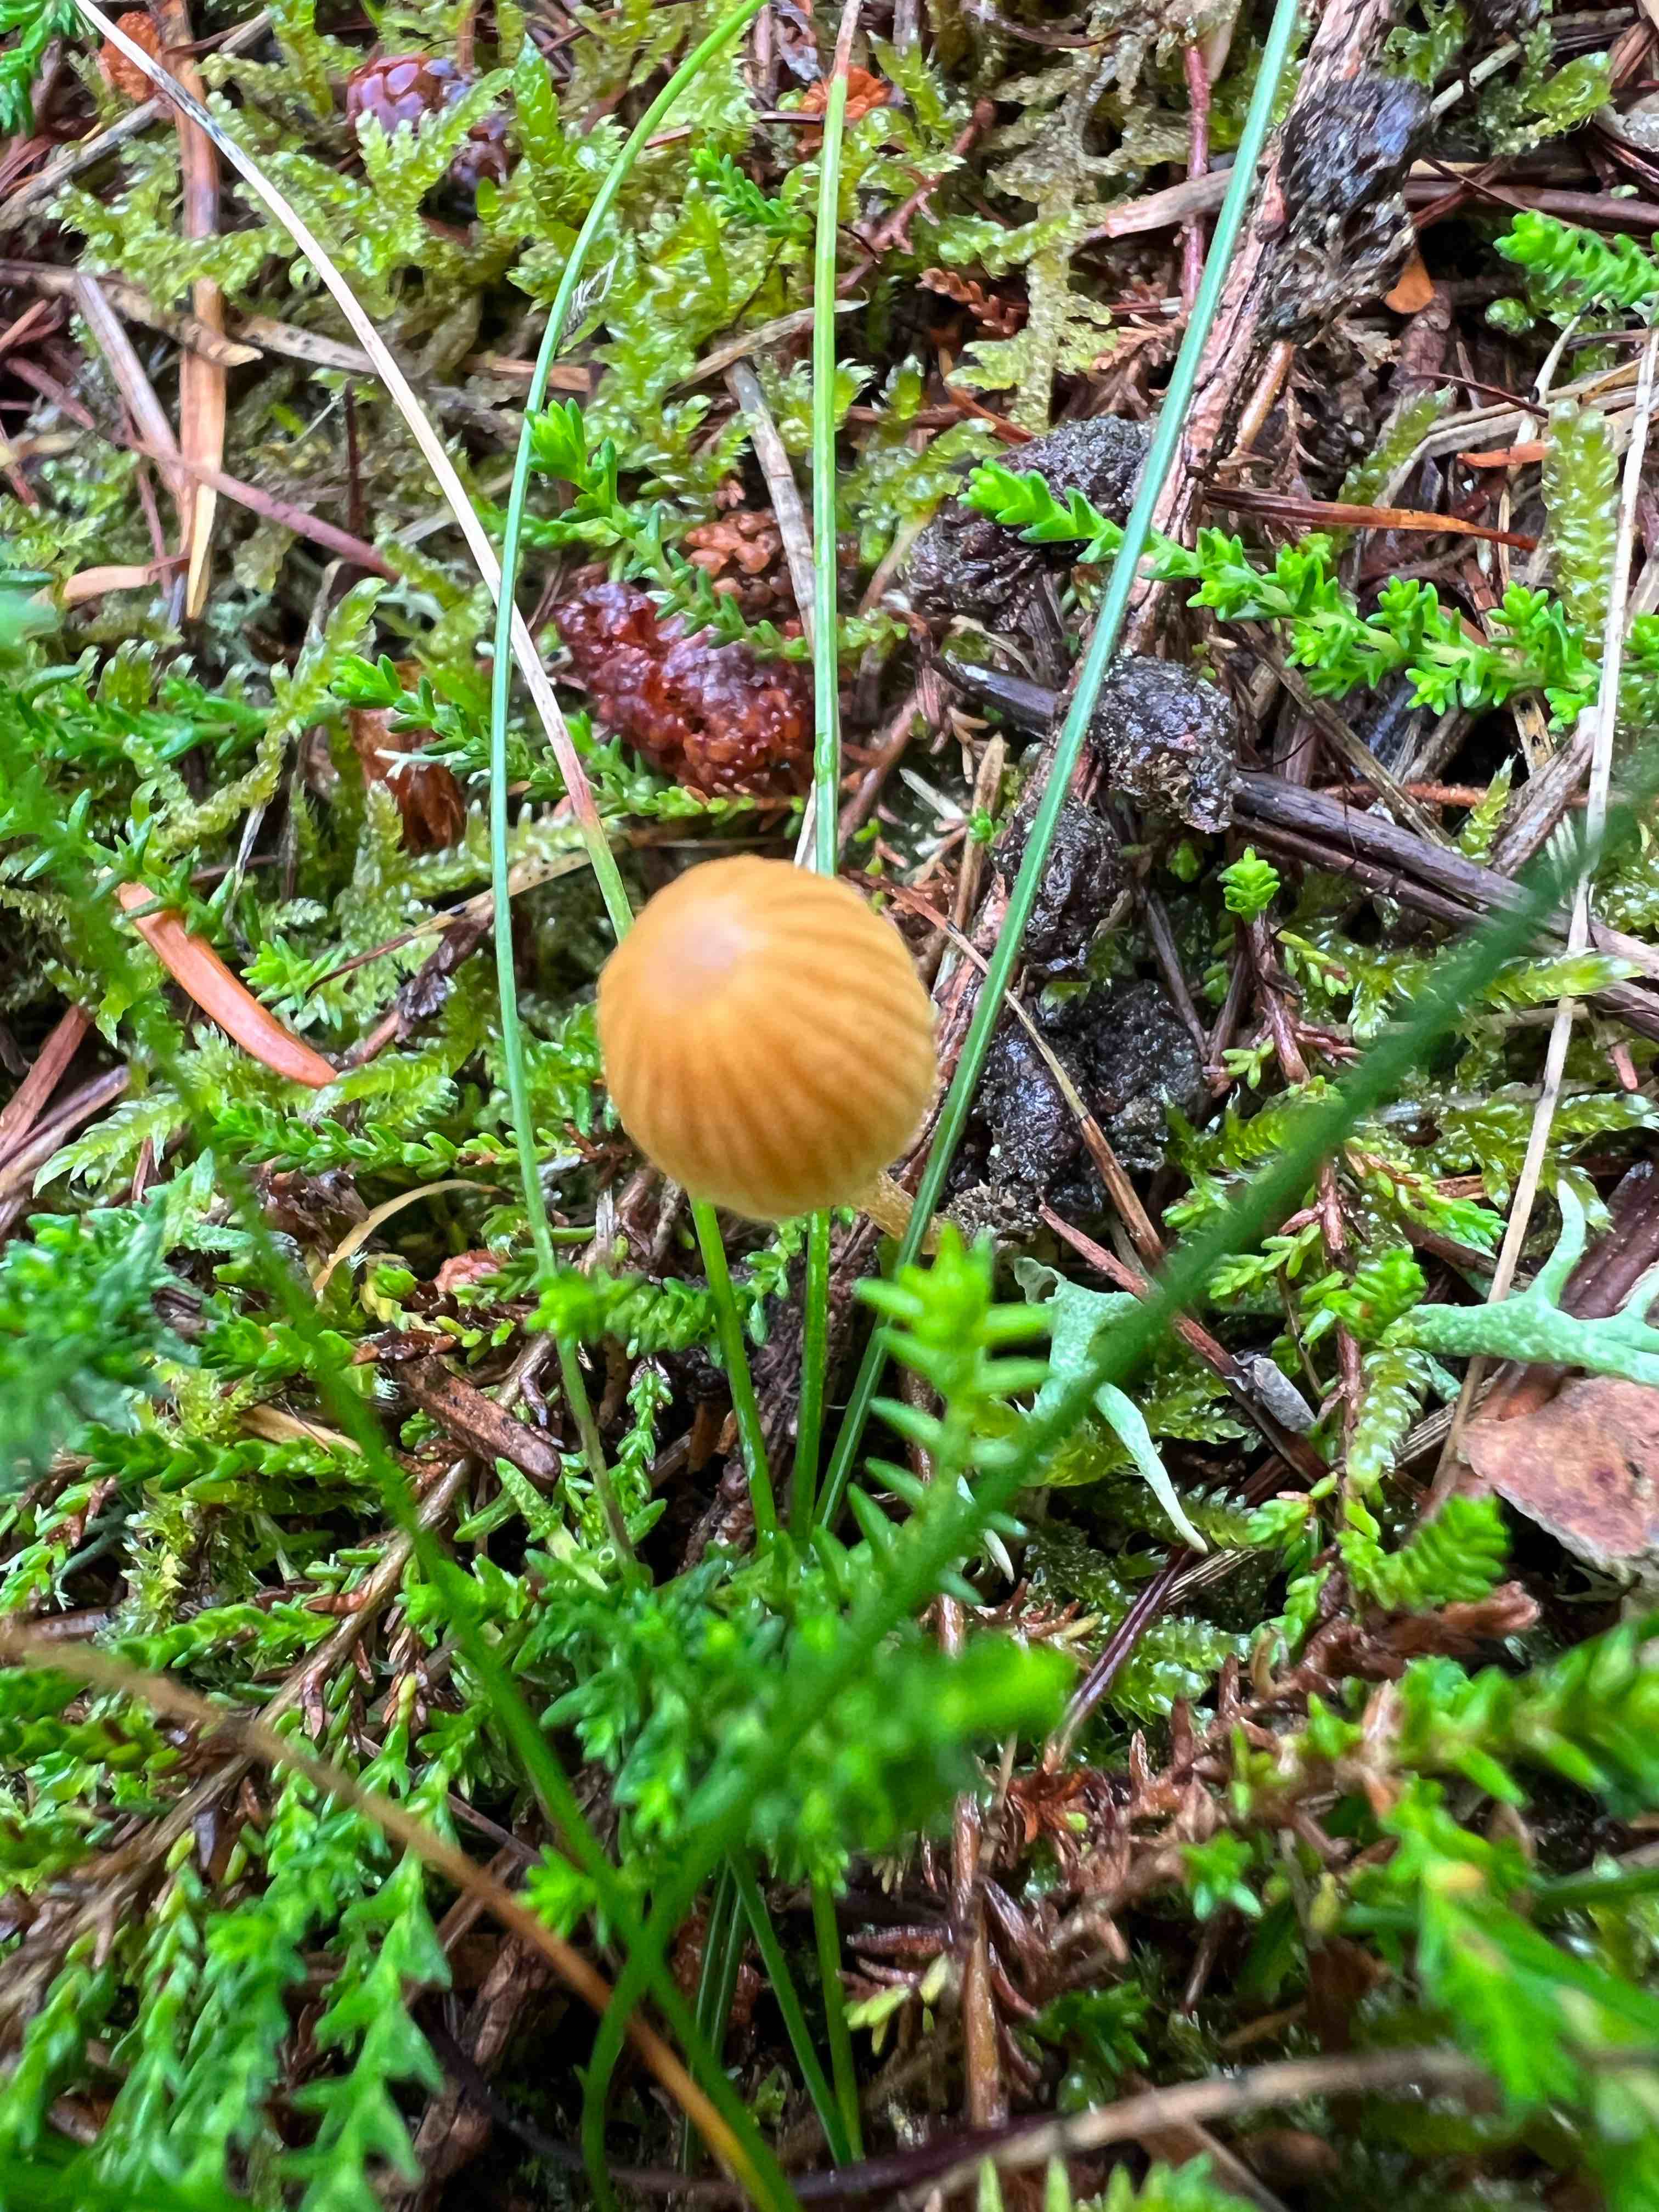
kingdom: Fungi
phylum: Basidiomycota
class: Agaricomycetes
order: Agaricales
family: Hymenogastraceae
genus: Galerina
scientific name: Galerina
